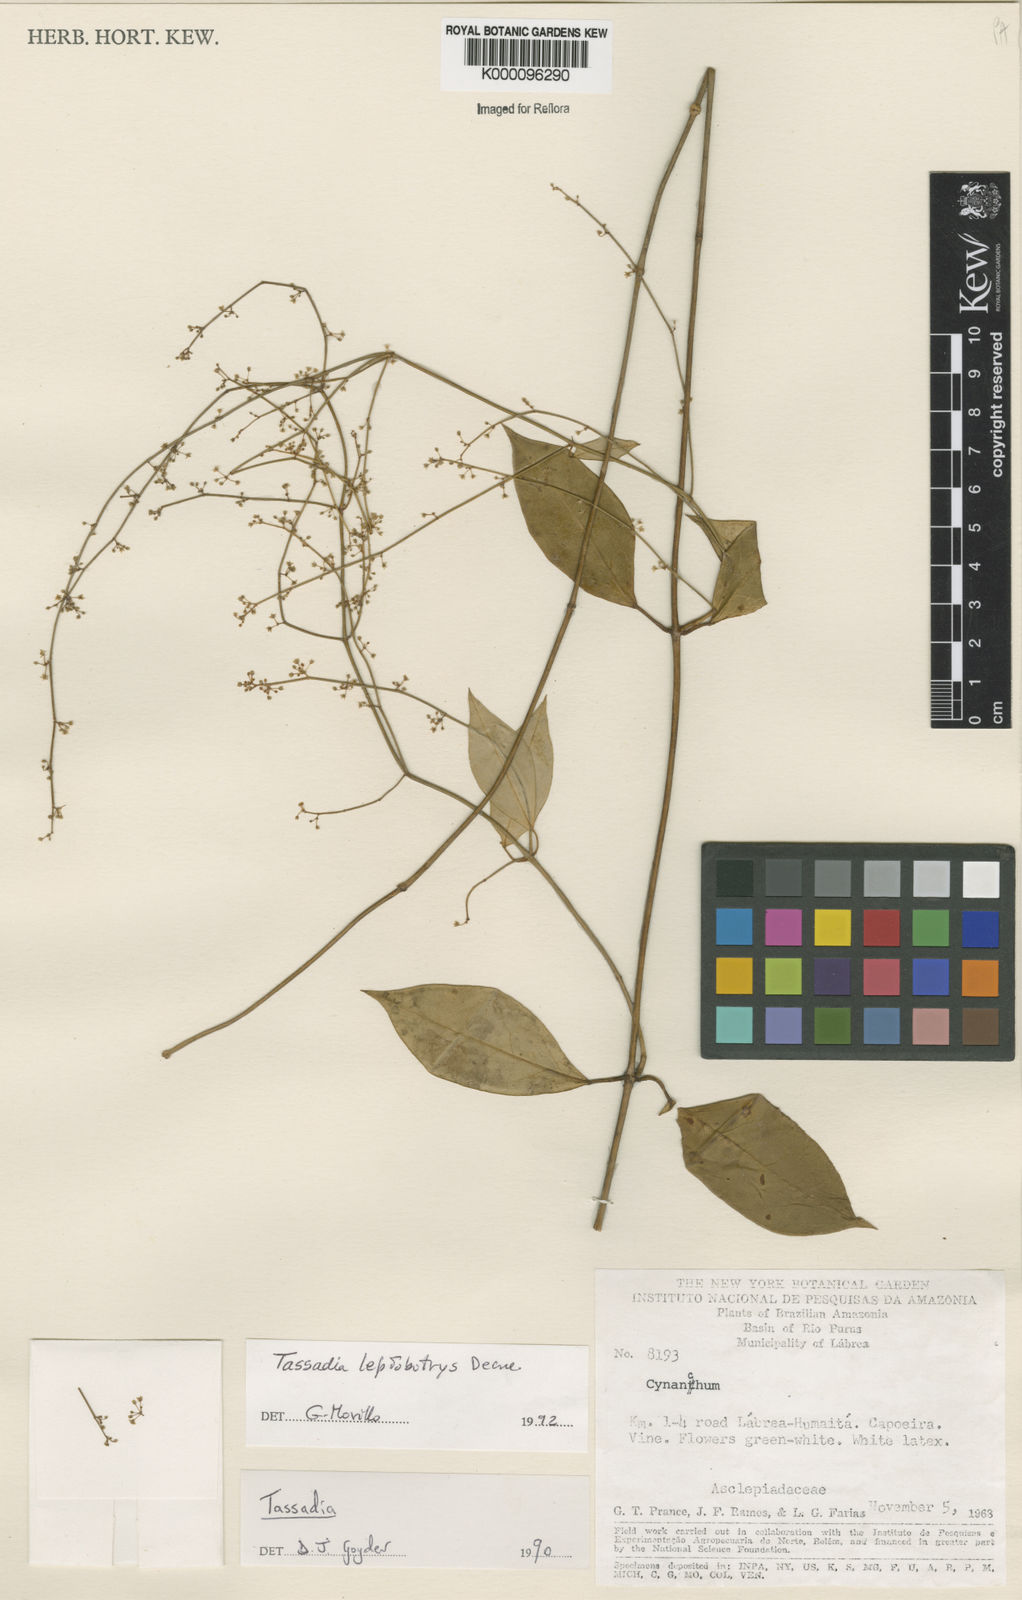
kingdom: Plantae
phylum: Tracheophyta
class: Magnoliopsida
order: Gentianales
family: Apocynaceae
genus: Tassadia
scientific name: Tassadia leptobotrys
